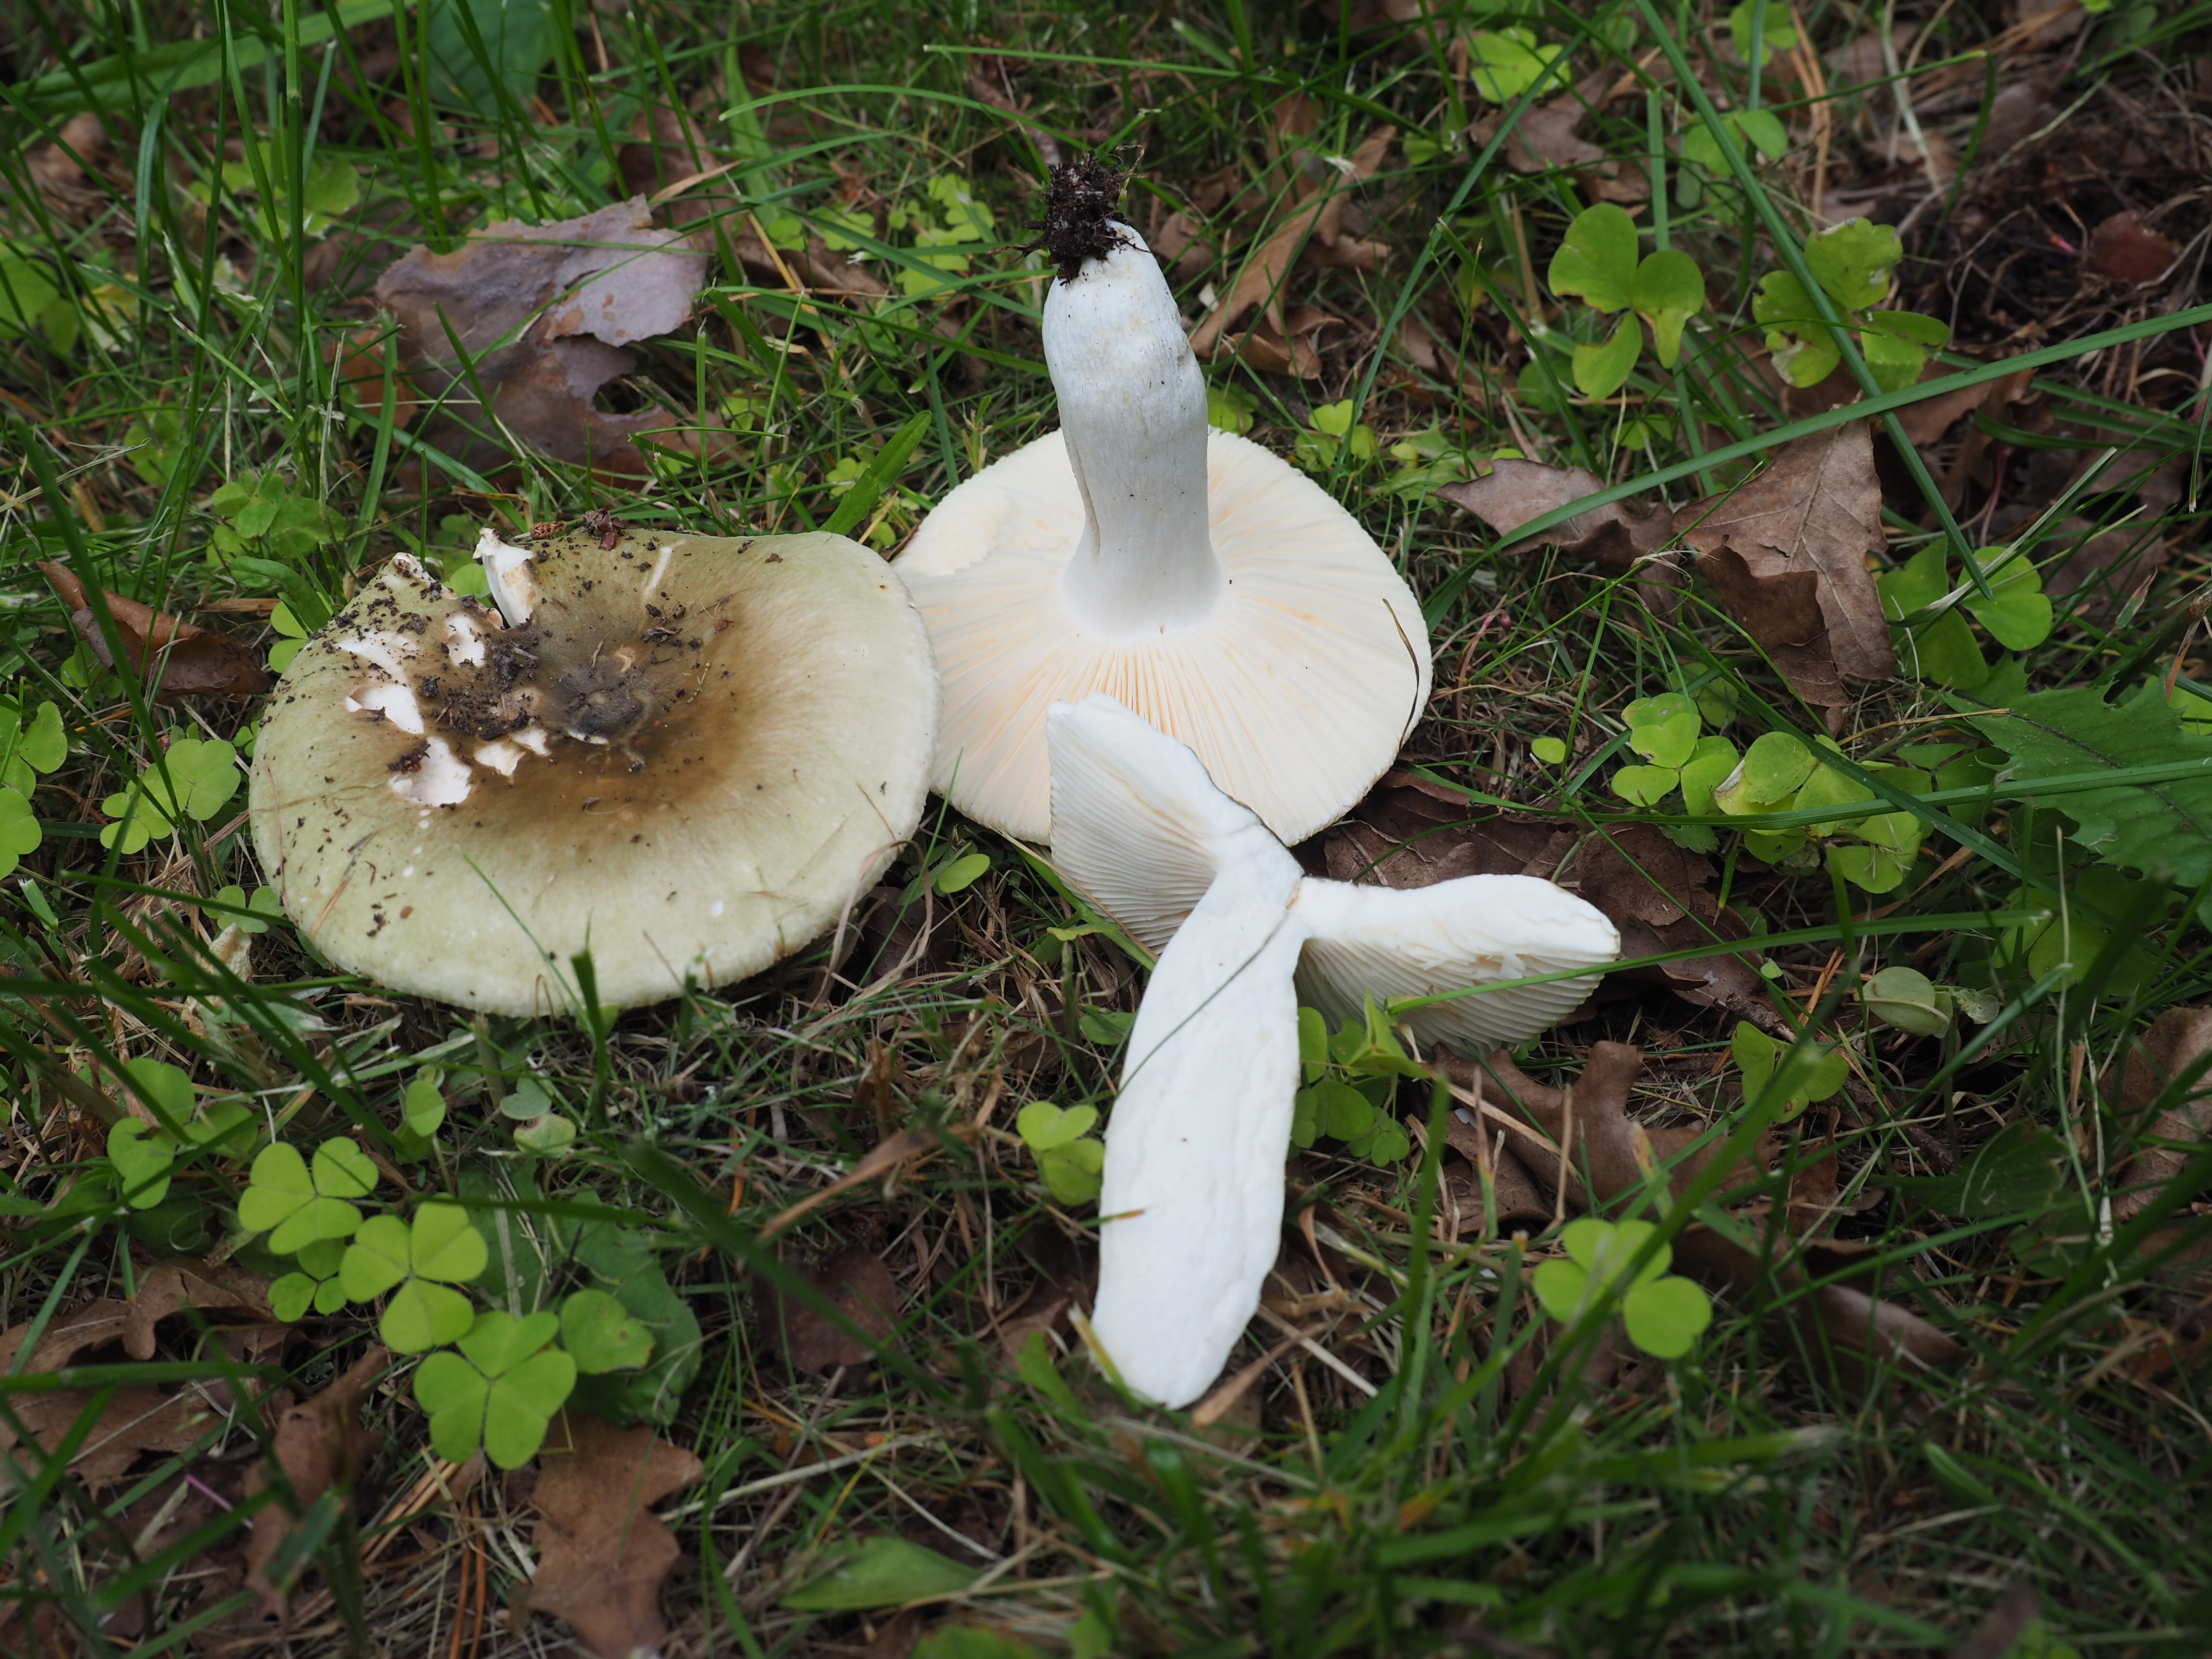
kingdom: Fungi
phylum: Basidiomycota
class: Agaricomycetes
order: Russulales
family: Russulaceae
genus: Russula
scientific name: Russula aeruginea
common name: Green brittlegill
